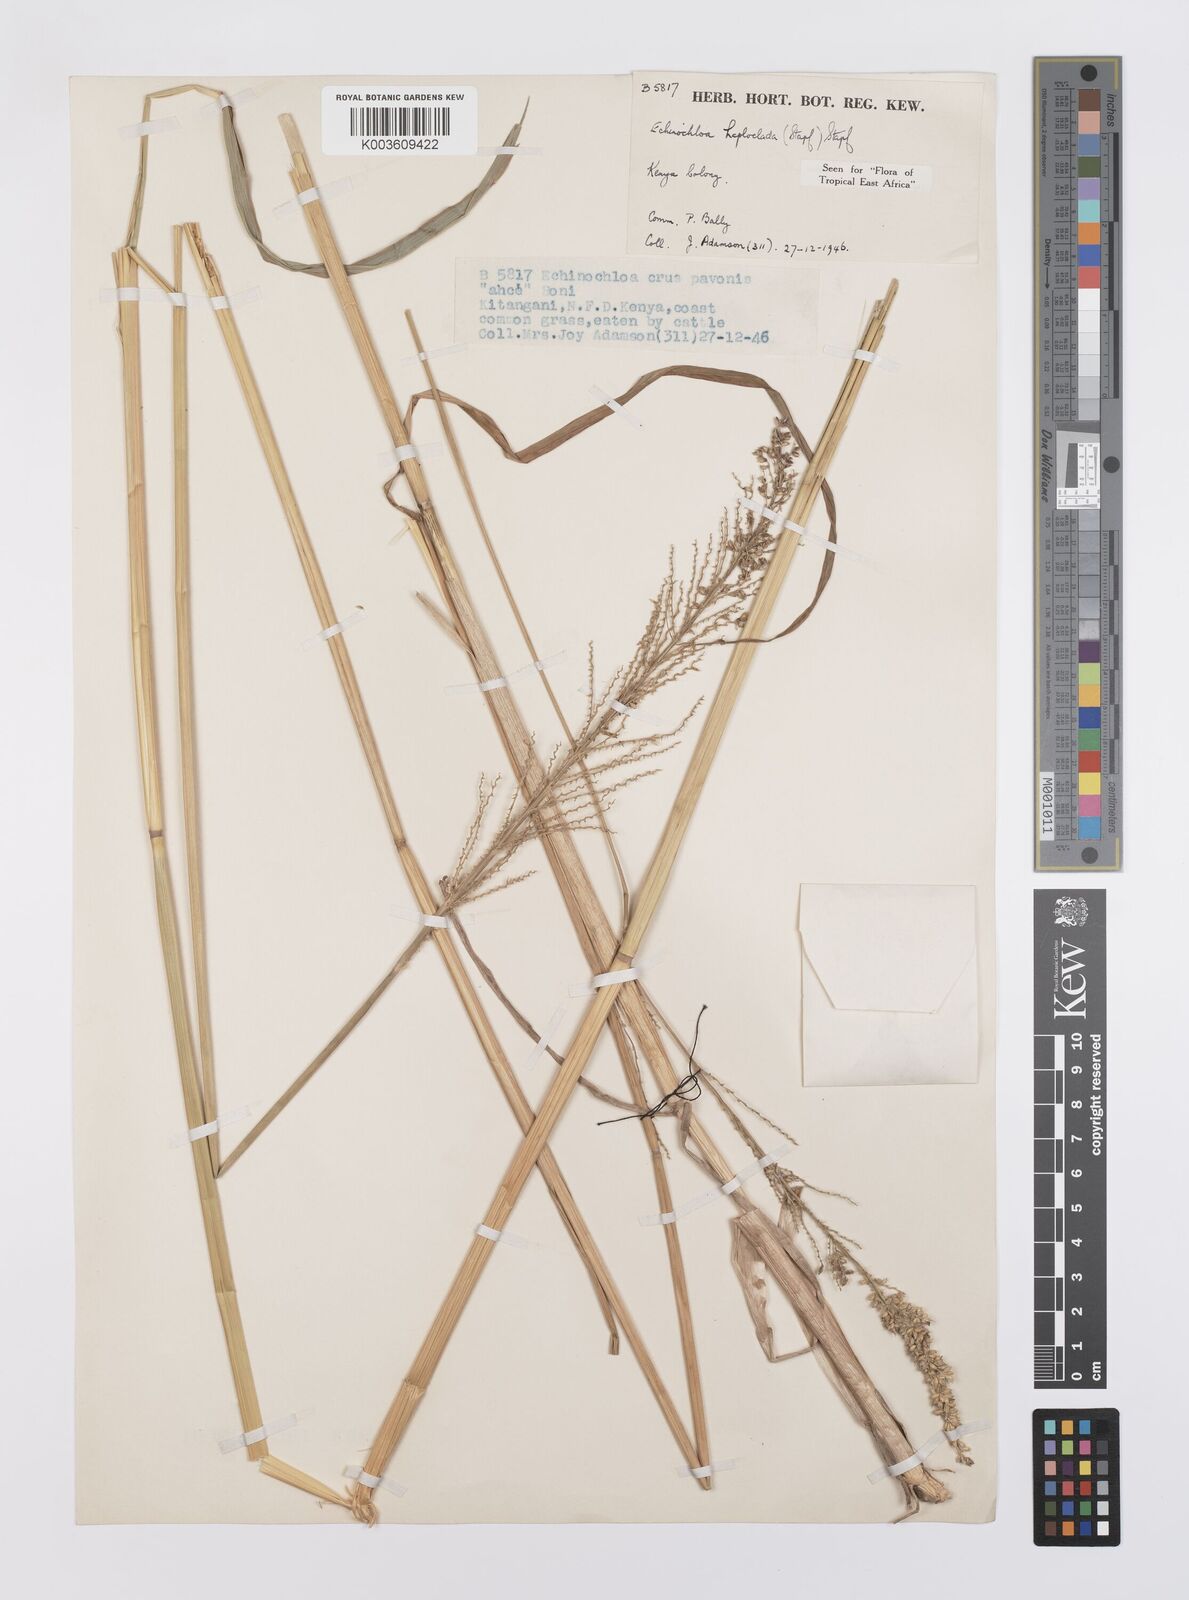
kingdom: Plantae
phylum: Tracheophyta
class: Liliopsida
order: Poales
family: Poaceae
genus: Echinochloa
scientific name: Echinochloa haploclada
